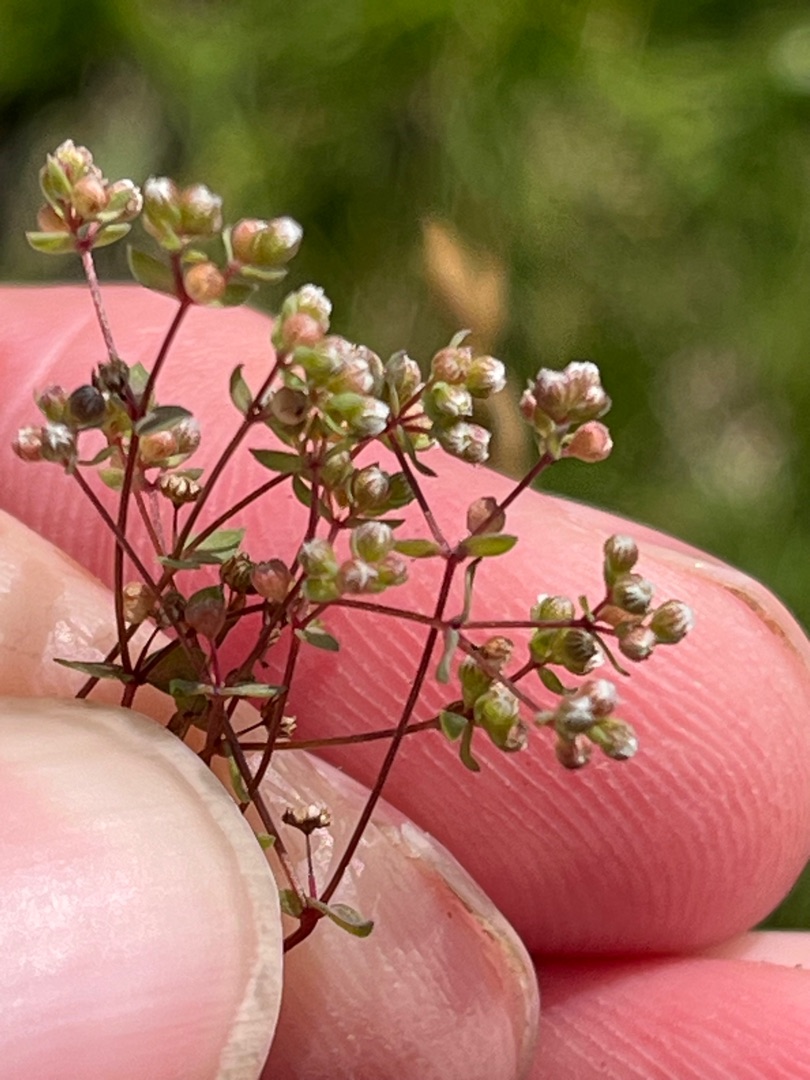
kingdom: Plantae
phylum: Tracheophyta
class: Magnoliopsida
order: Malpighiales
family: Linaceae
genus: Radiola
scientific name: Radiola linoides
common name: Tusindfrø
